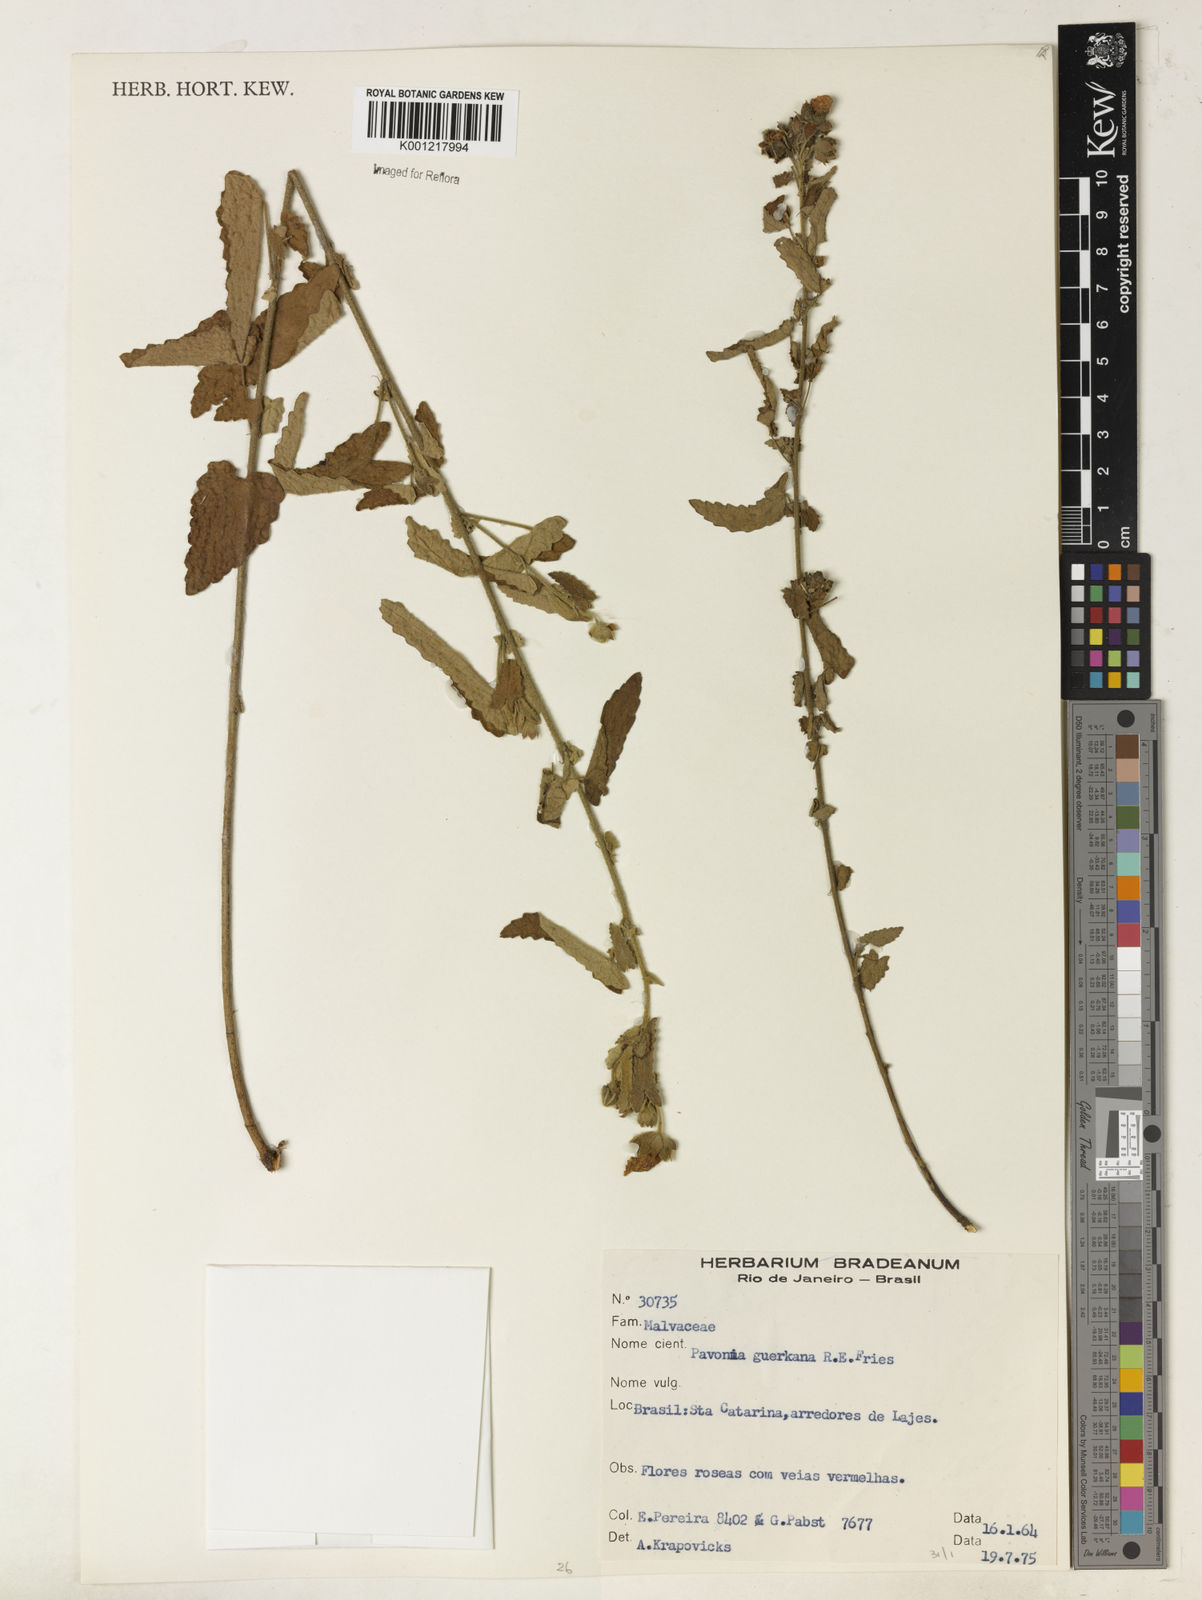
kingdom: Plantae
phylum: Tracheophyta
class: Magnoliopsida
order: Malvales
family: Malvaceae
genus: Pavonia
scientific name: Pavonia guerkeana
